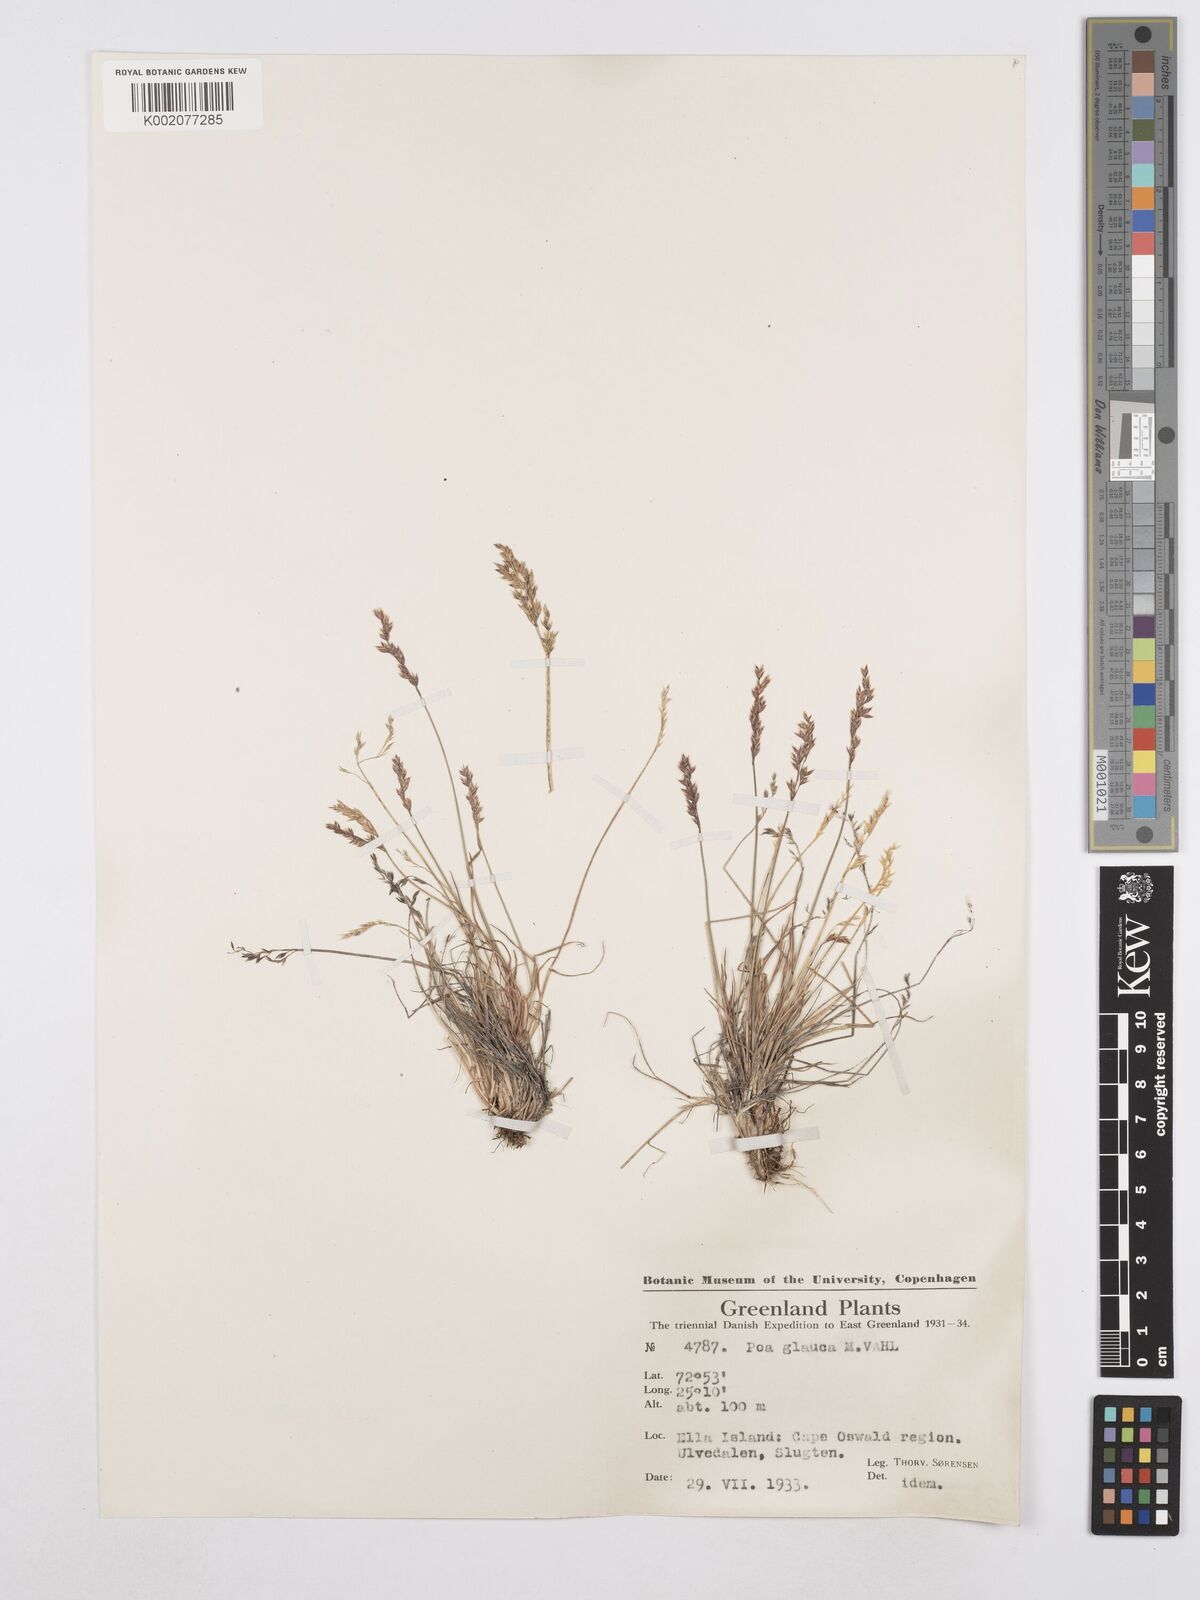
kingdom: Plantae
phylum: Tracheophyta
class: Liliopsida
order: Poales
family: Poaceae
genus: Poa
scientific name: Poa glauca
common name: Glaucous bluegrass
